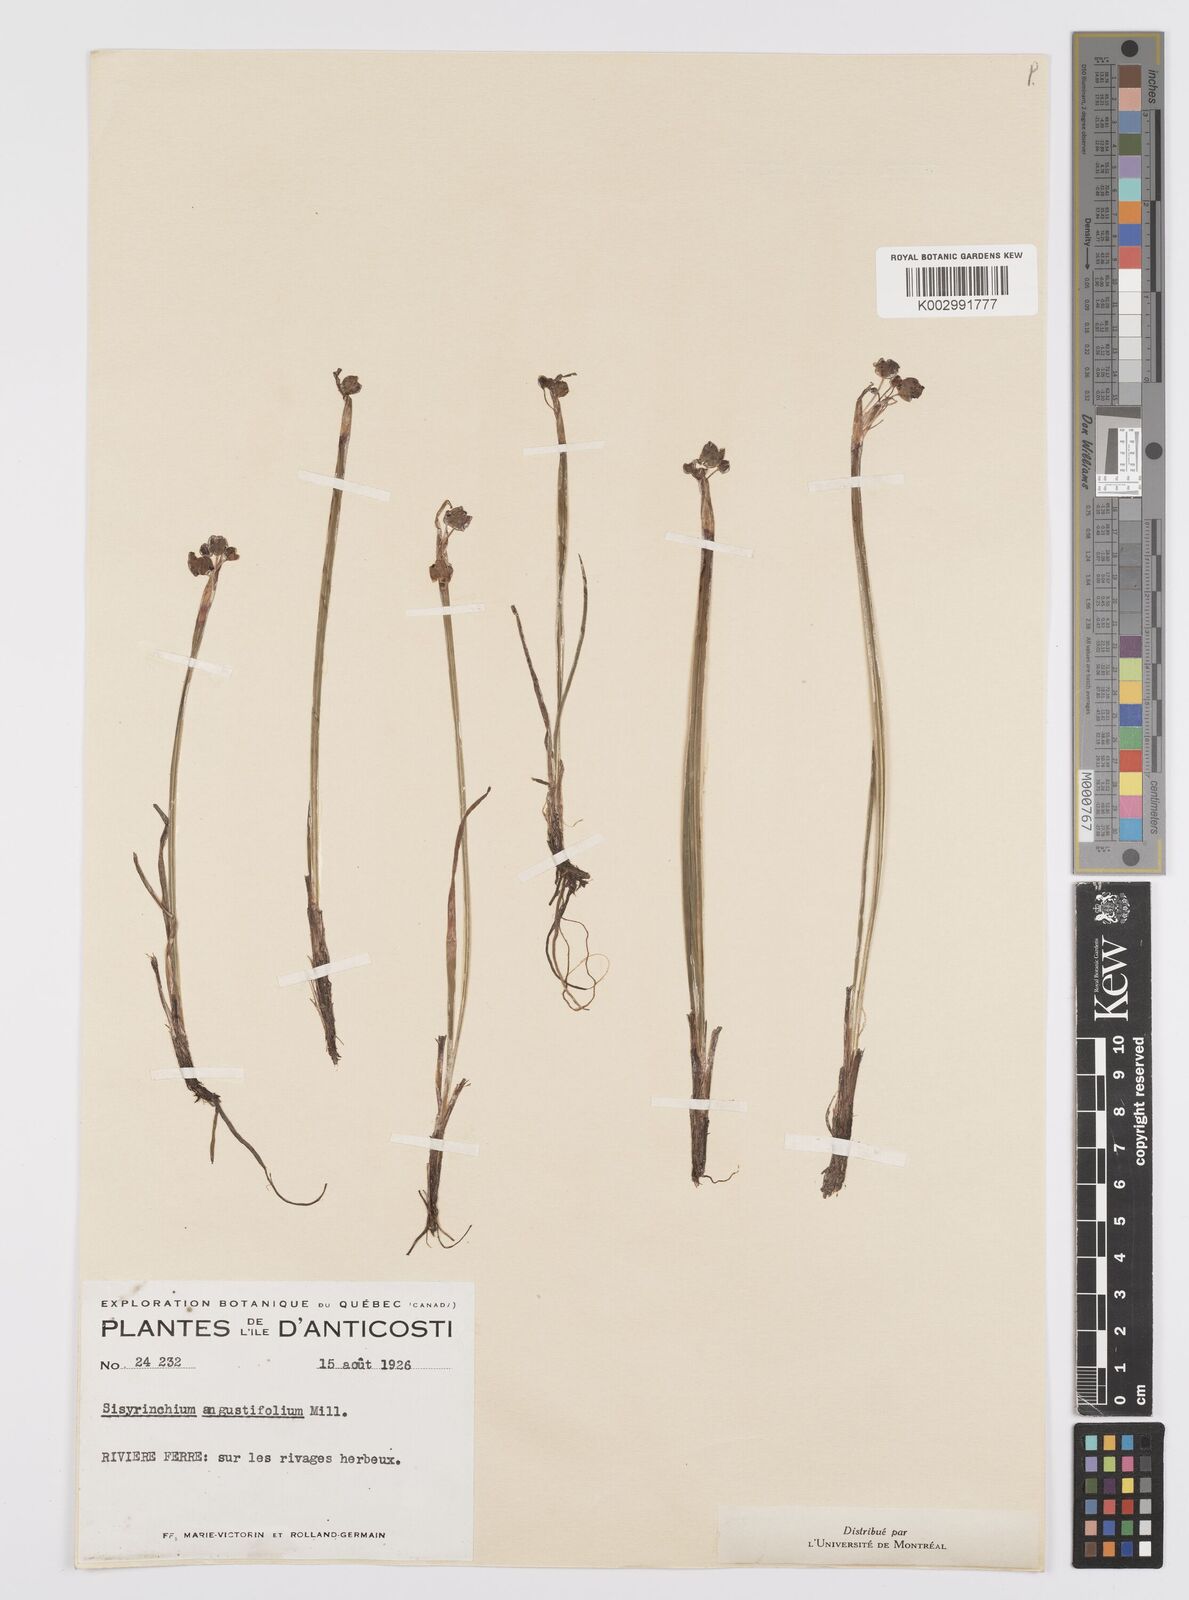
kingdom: Plantae
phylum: Tracheophyta
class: Liliopsida
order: Asparagales
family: Iridaceae
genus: Sisyrinchium
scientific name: Sisyrinchium bermudiana
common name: Blue-eyed-grass
